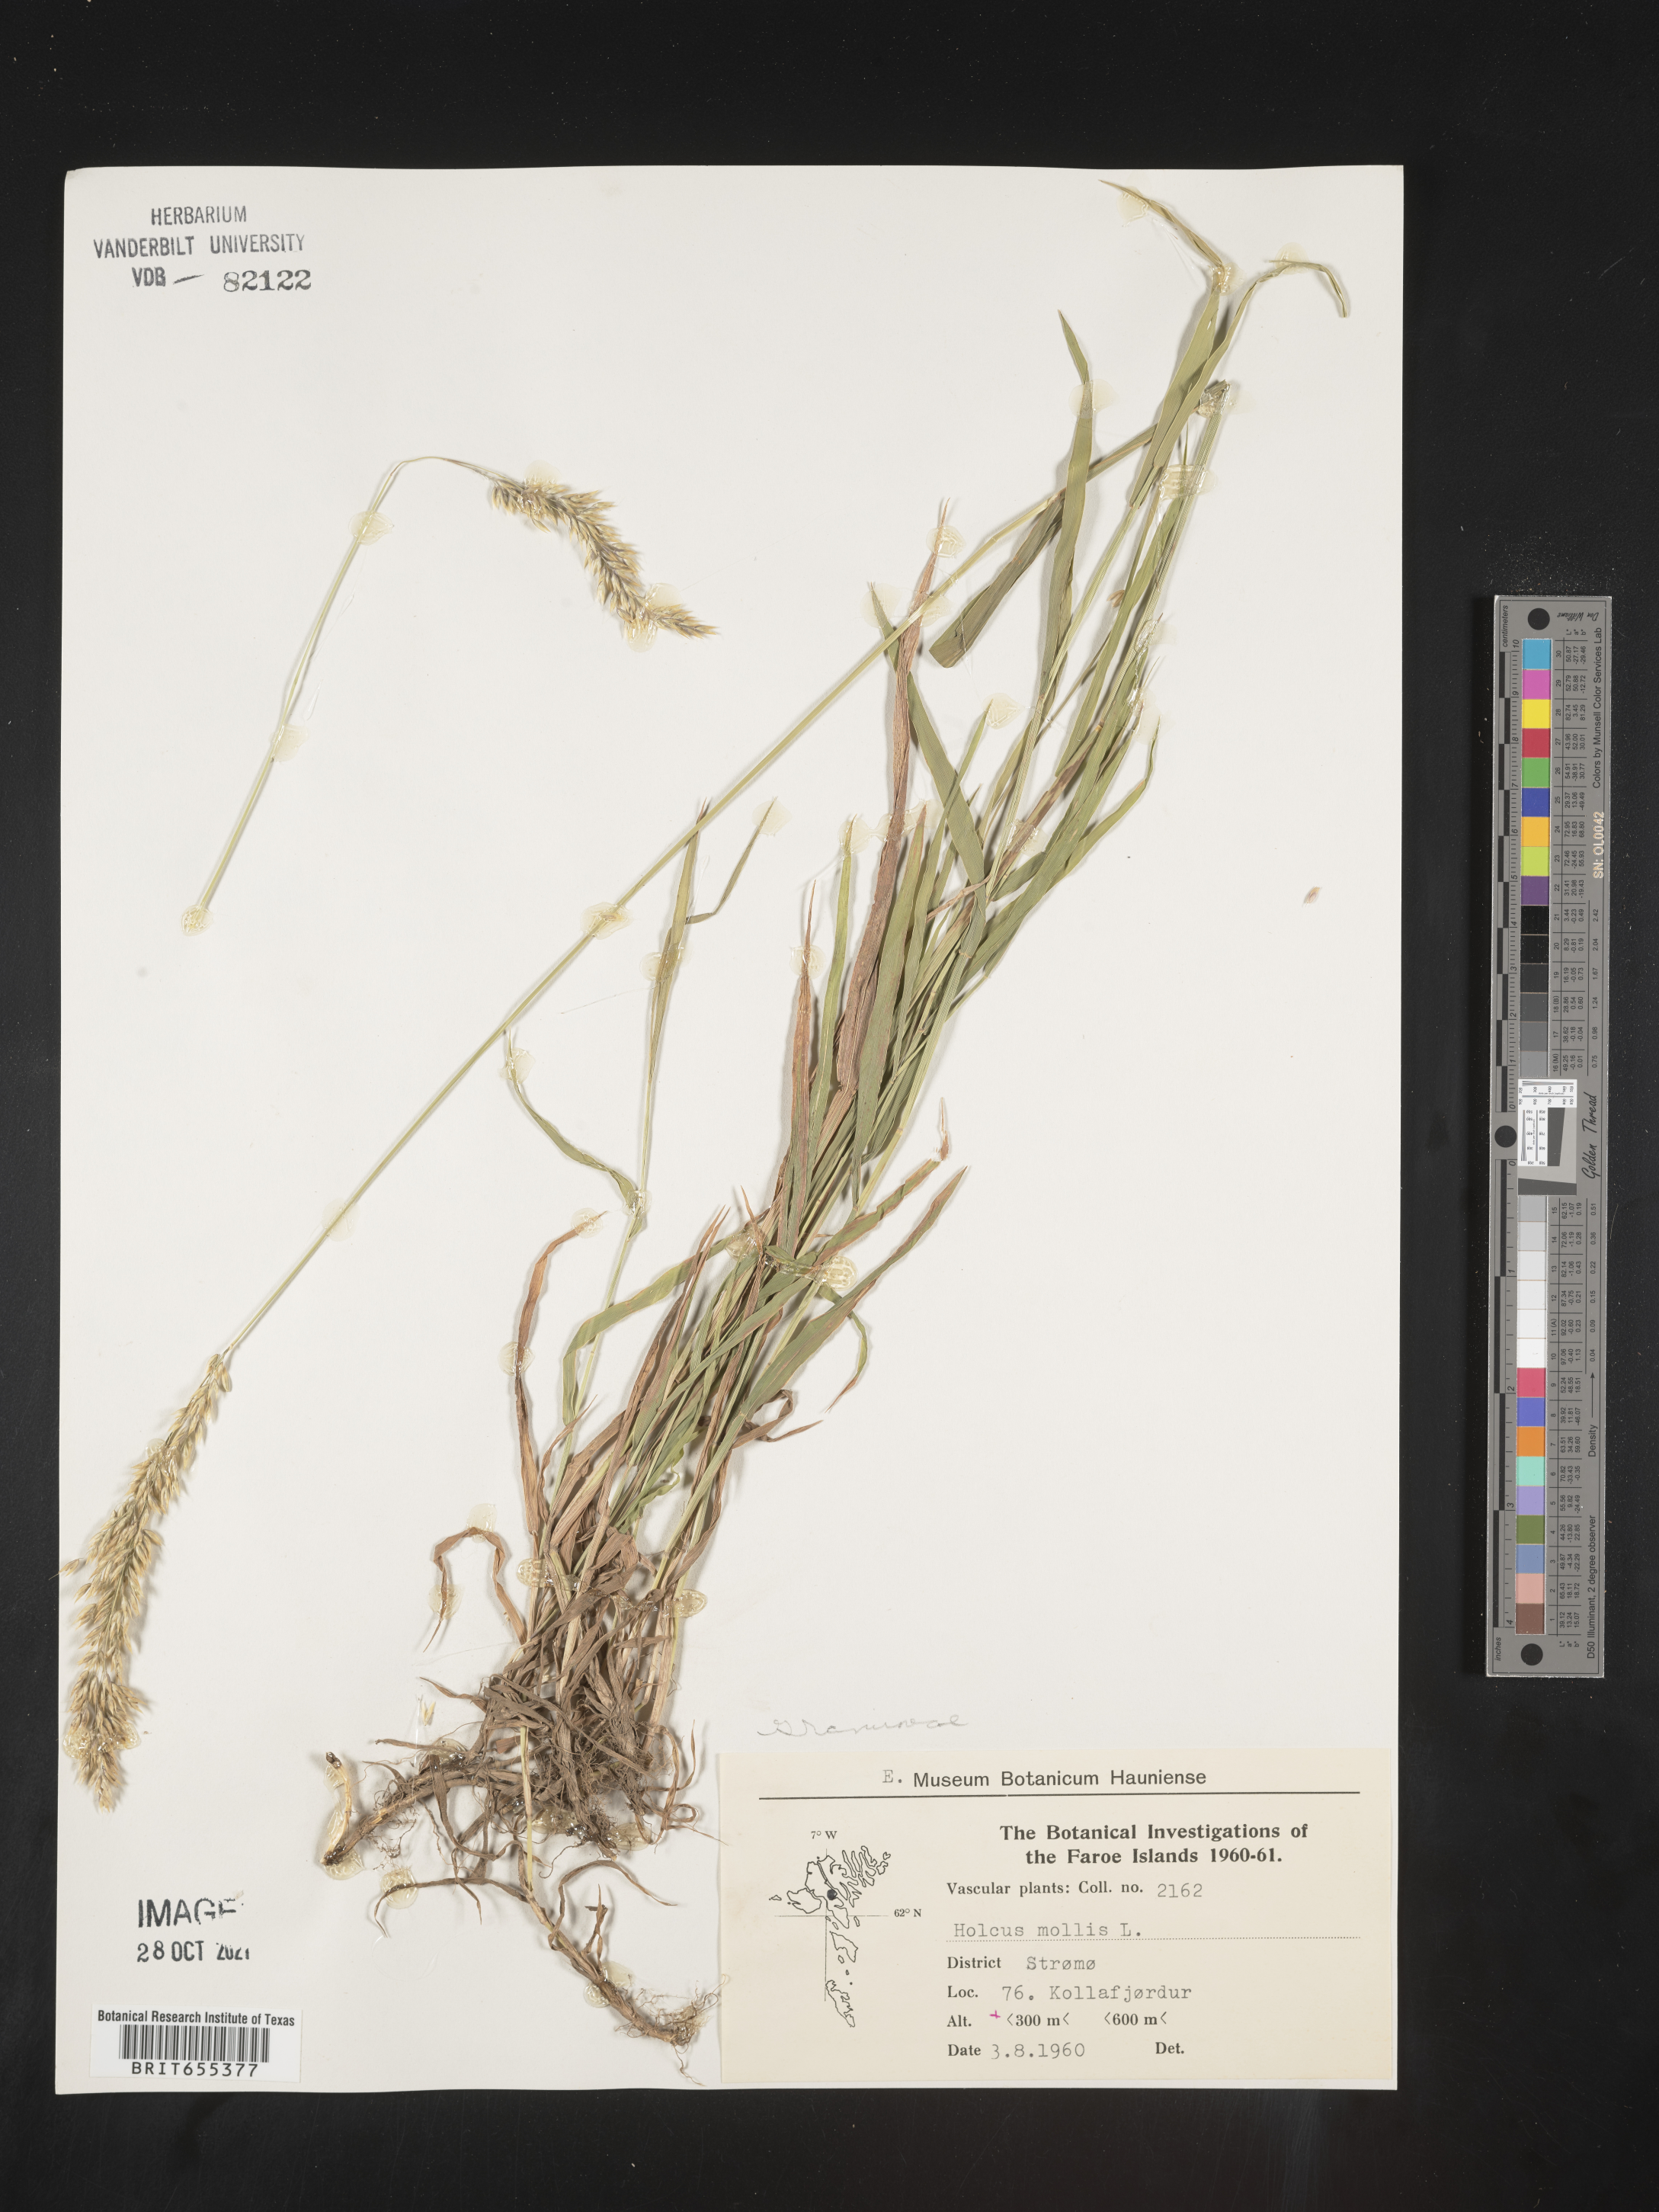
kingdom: Plantae
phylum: Tracheophyta
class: Liliopsida
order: Poales
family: Poaceae
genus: Holcus
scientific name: Holcus
